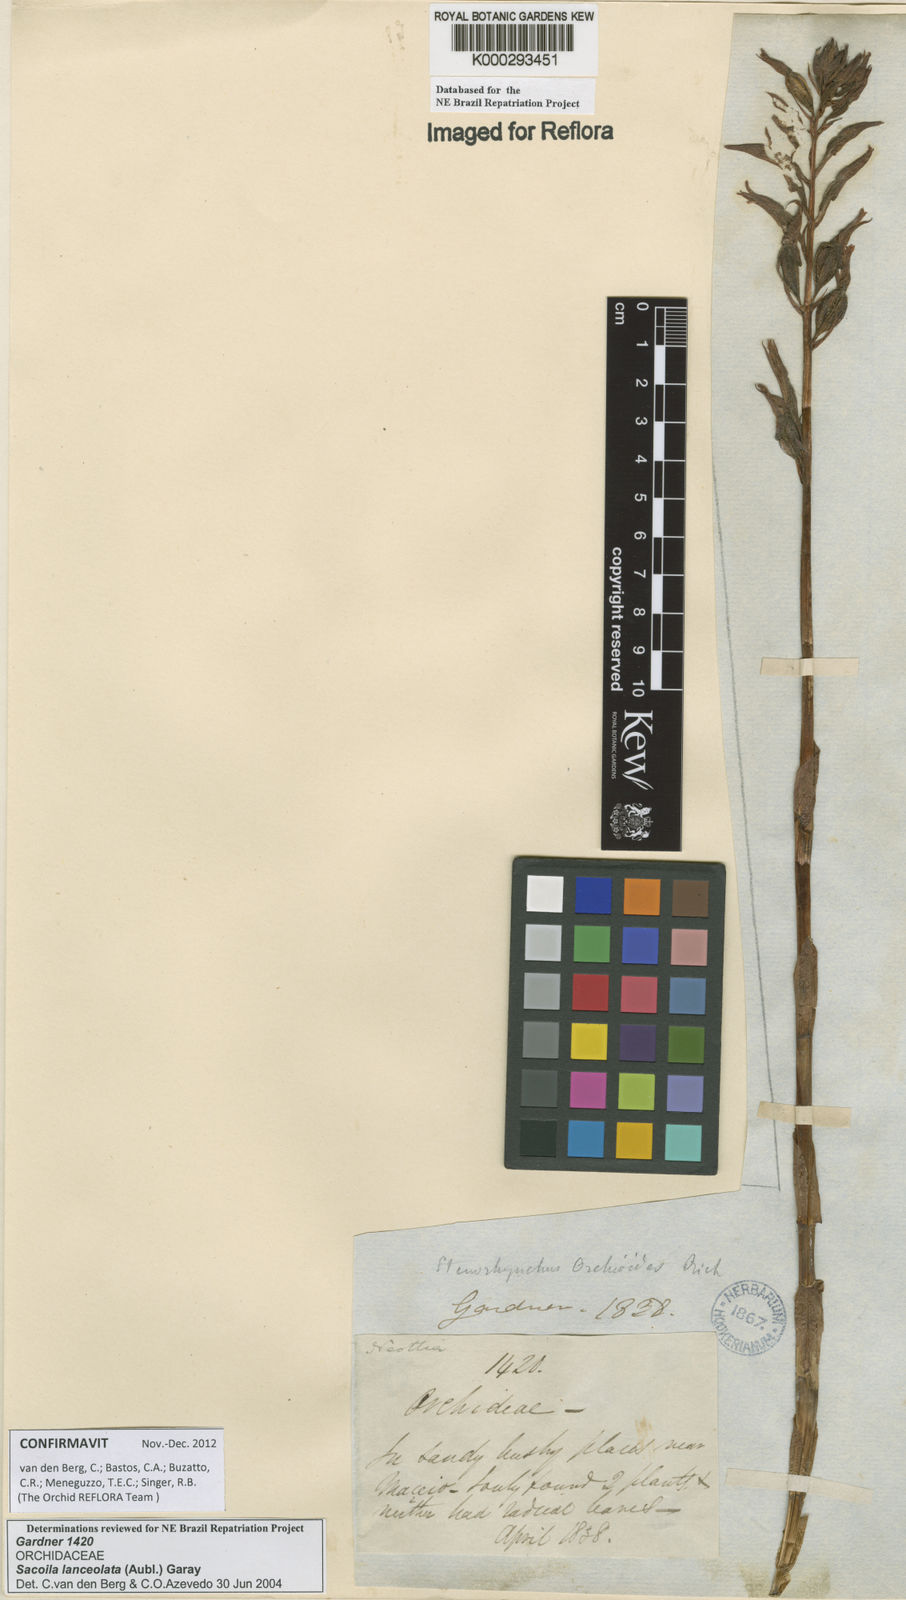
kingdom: Plantae
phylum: Tracheophyta
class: Liliopsida
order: Asparagales
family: Orchidaceae
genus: Sacoila
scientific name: Sacoila lanceolata
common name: Leafless beaked ladiestresses
